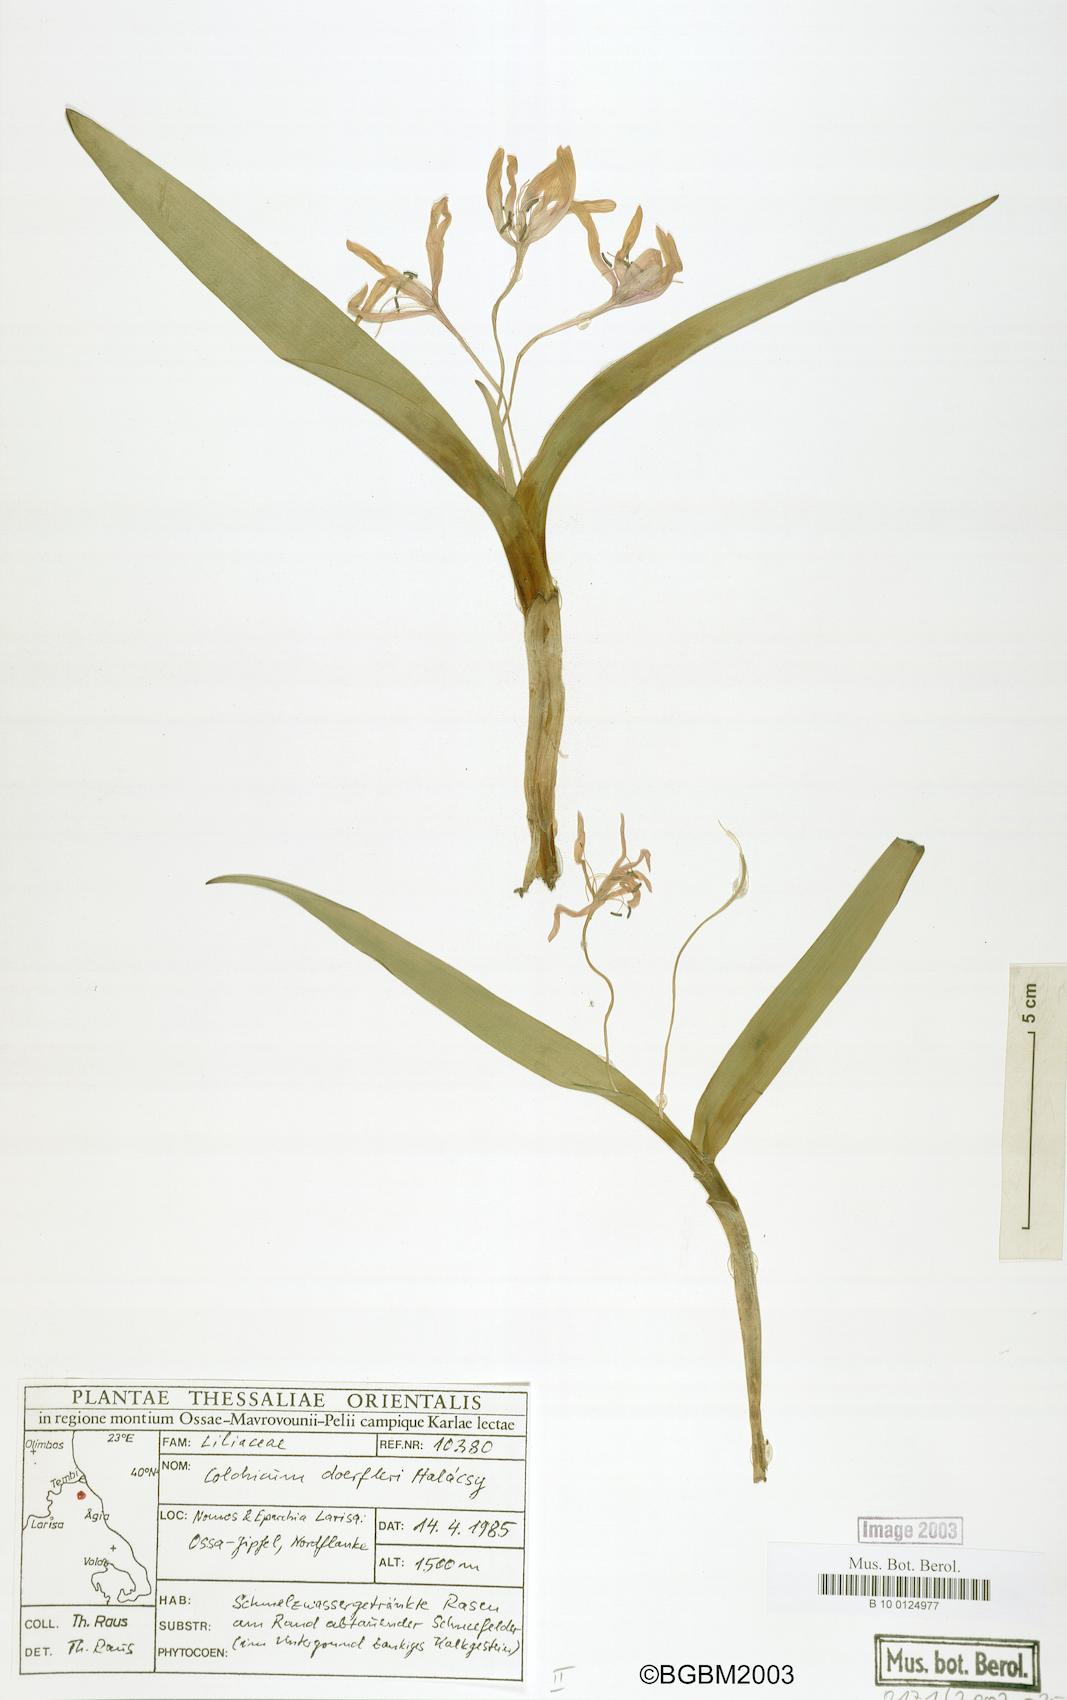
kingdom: Plantae
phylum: Tracheophyta
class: Liliopsida
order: Liliales
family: Colchicaceae
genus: Colchicum
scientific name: Colchicum doerfleri
